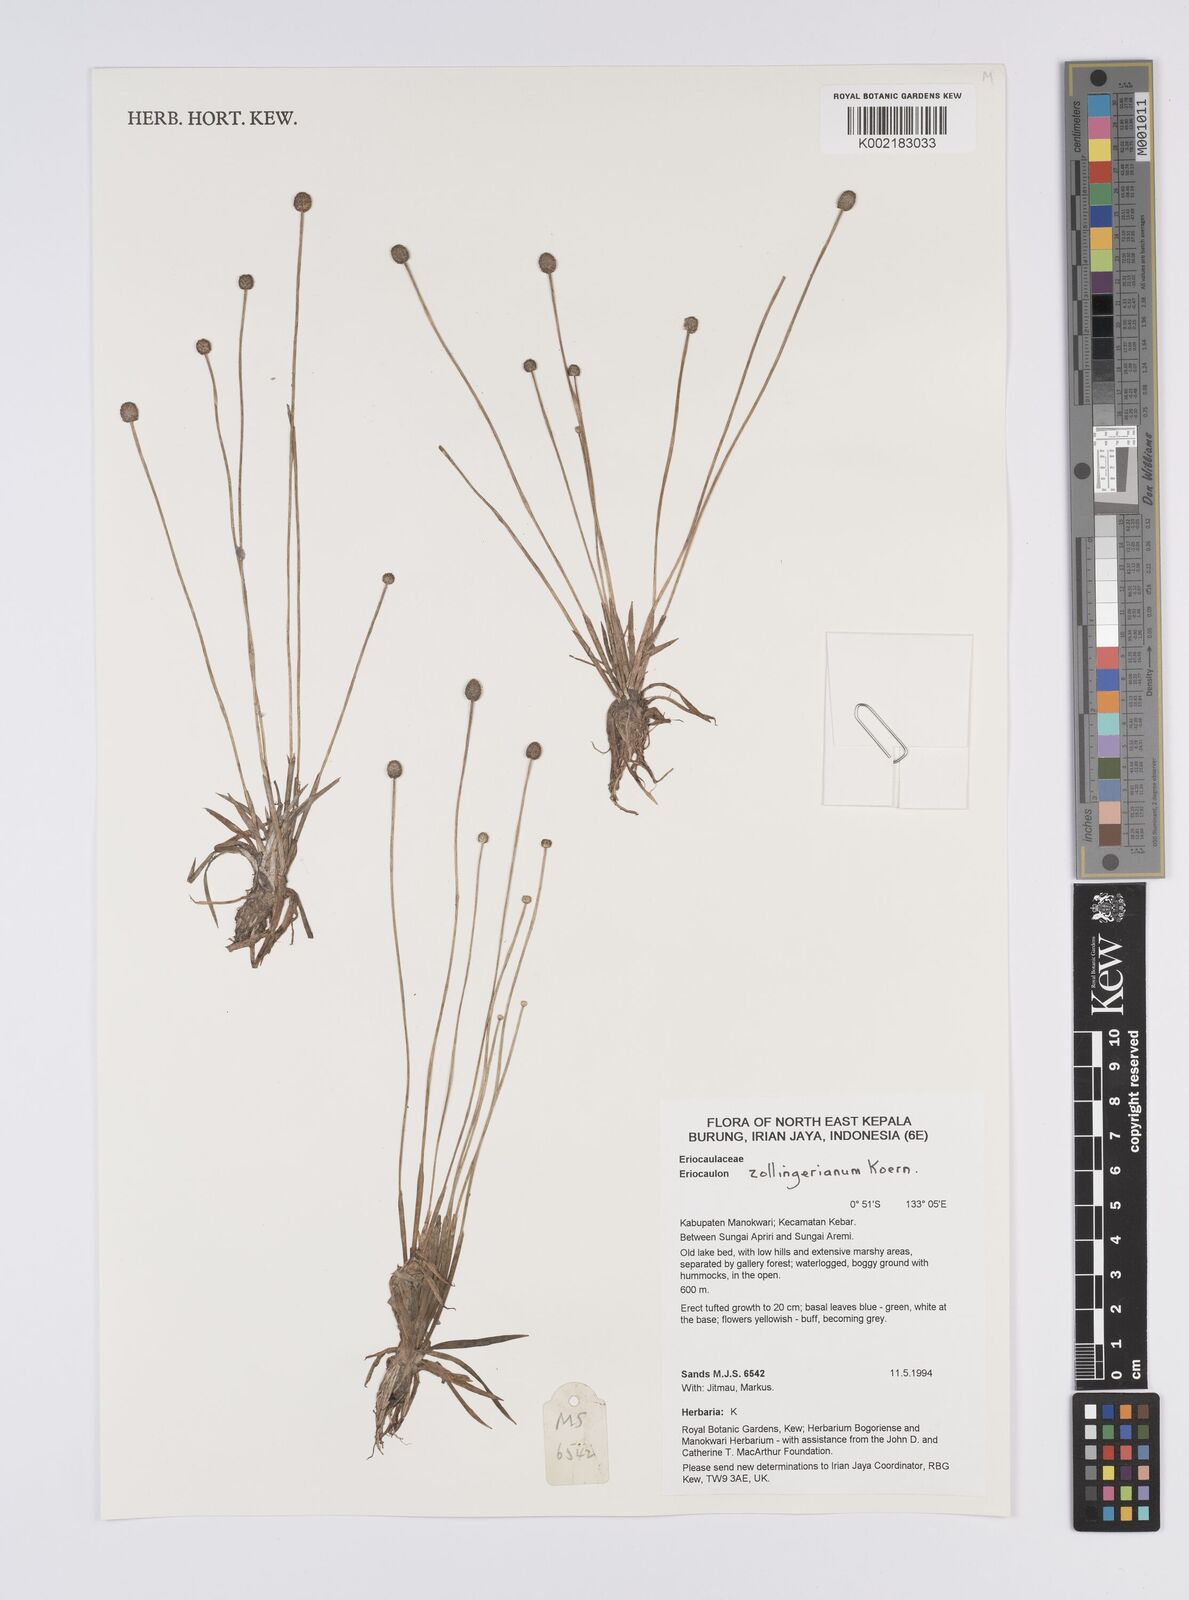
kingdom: Plantae
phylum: Tracheophyta
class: Liliopsida
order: Poales
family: Eriocaulaceae
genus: Eriocaulon
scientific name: Eriocaulon zollingerianum
